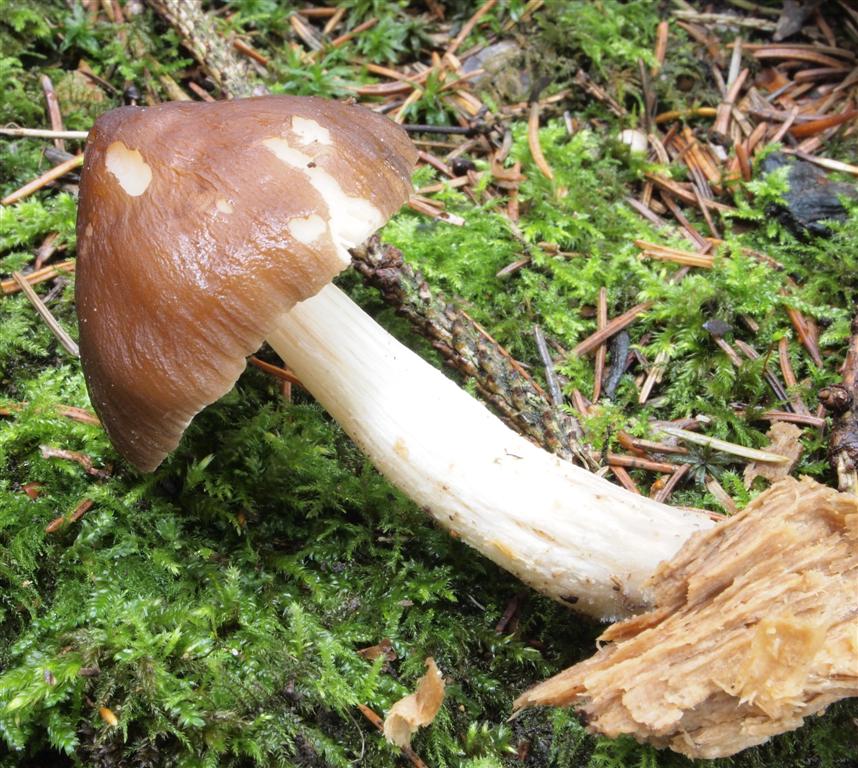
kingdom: Fungi
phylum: Basidiomycota
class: Agaricomycetes
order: Agaricales
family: Pluteaceae
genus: Pluteus
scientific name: Pluteus phlebophorus
